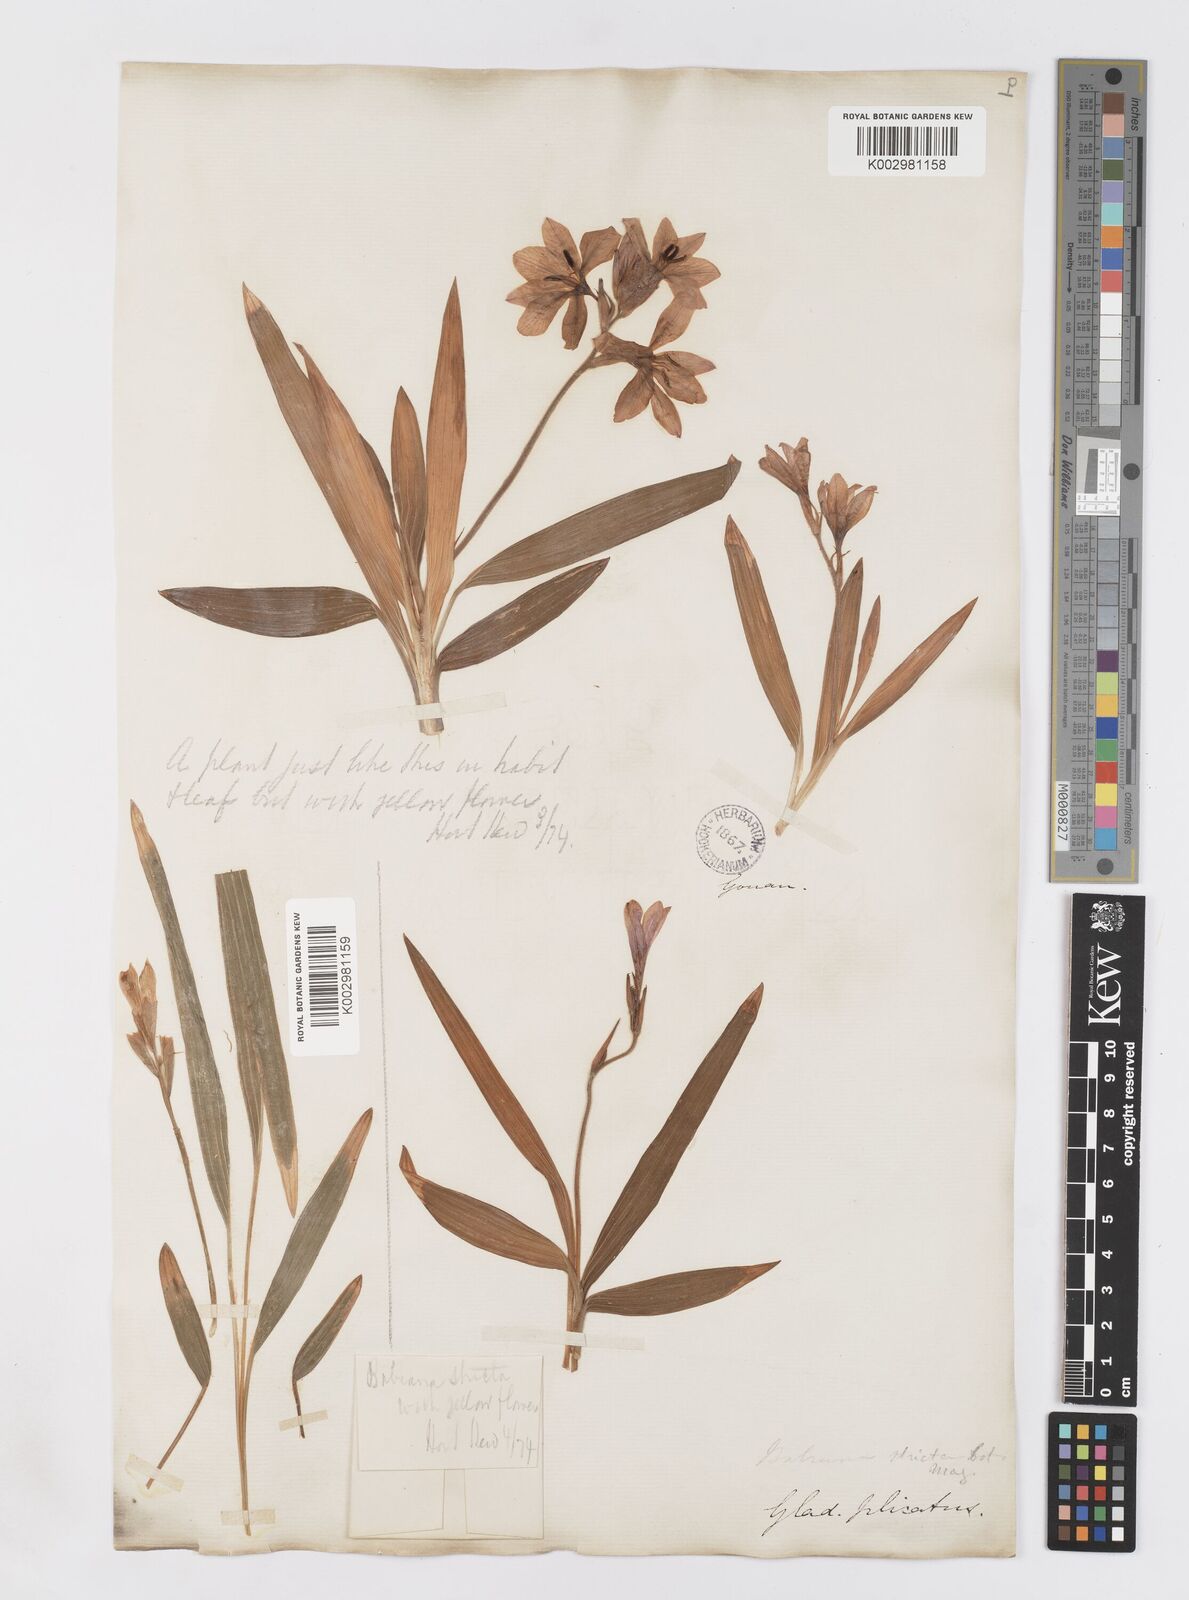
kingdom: Plantae
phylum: Tracheophyta
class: Liliopsida
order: Asparagales
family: Iridaceae
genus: Babiana
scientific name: Babiana
